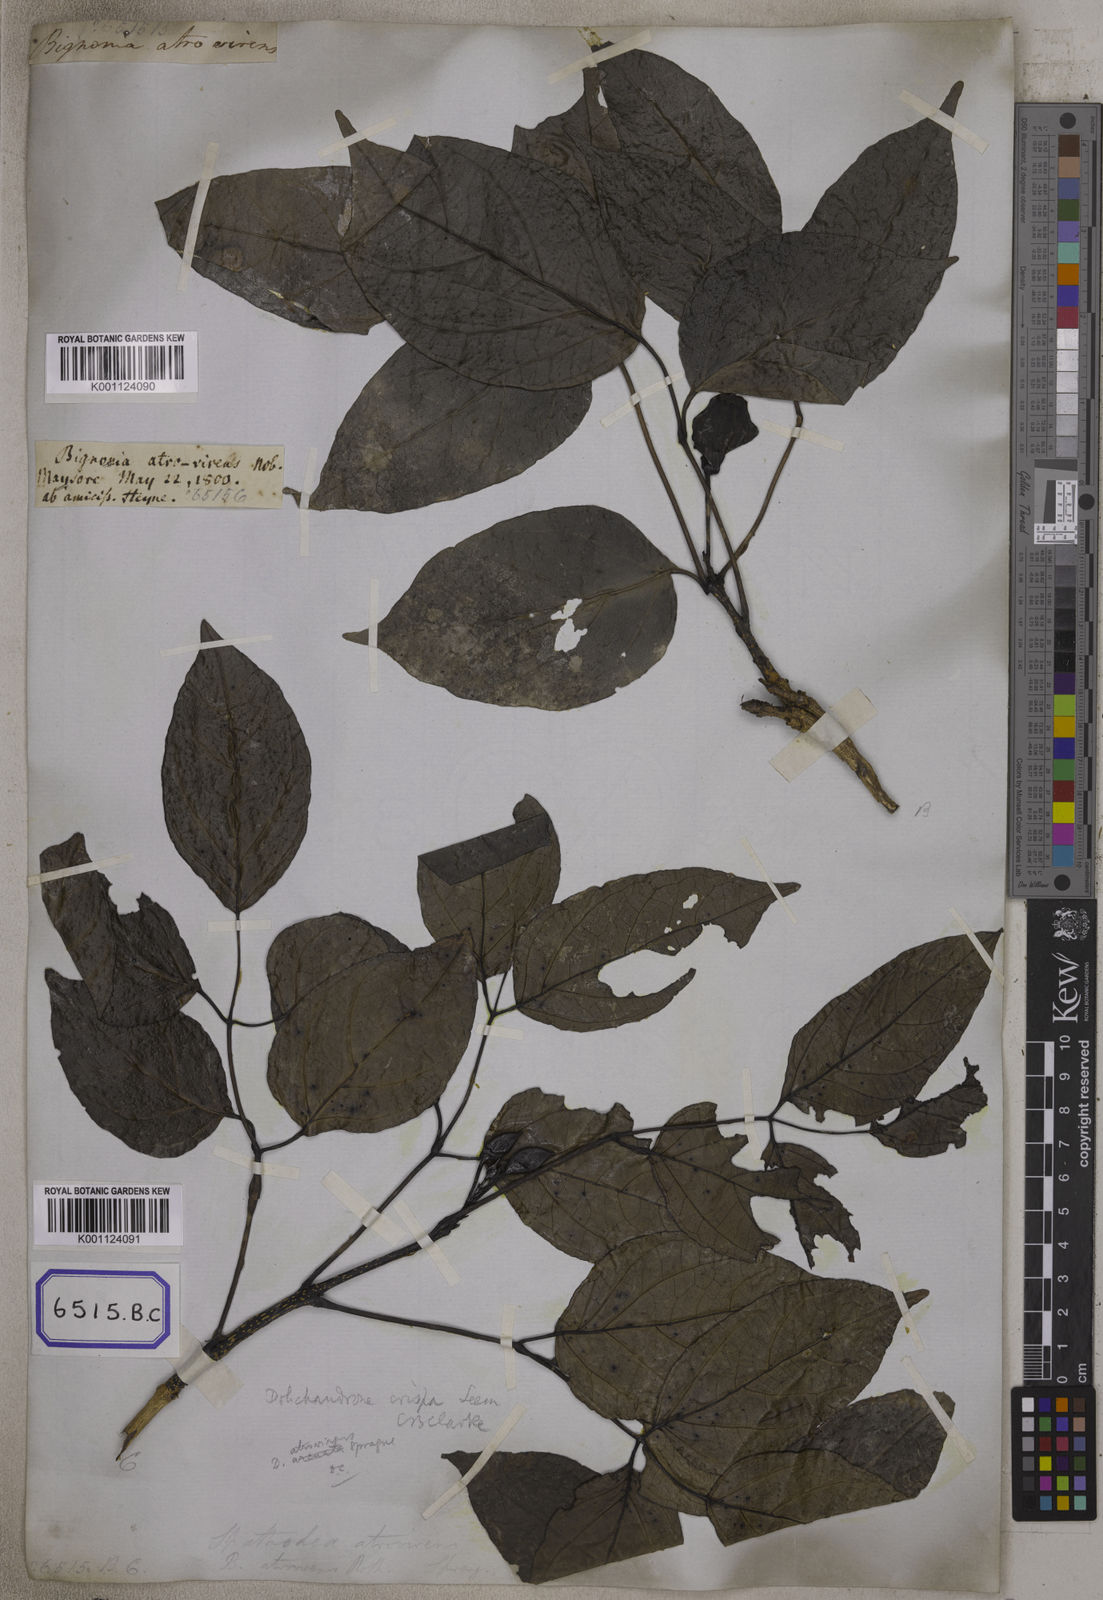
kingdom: Plantae
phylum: Tracheophyta
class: Magnoliopsida
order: Lamiales
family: Bignoniaceae
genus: Dolichandrone
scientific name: Dolichandrone atrovirens
